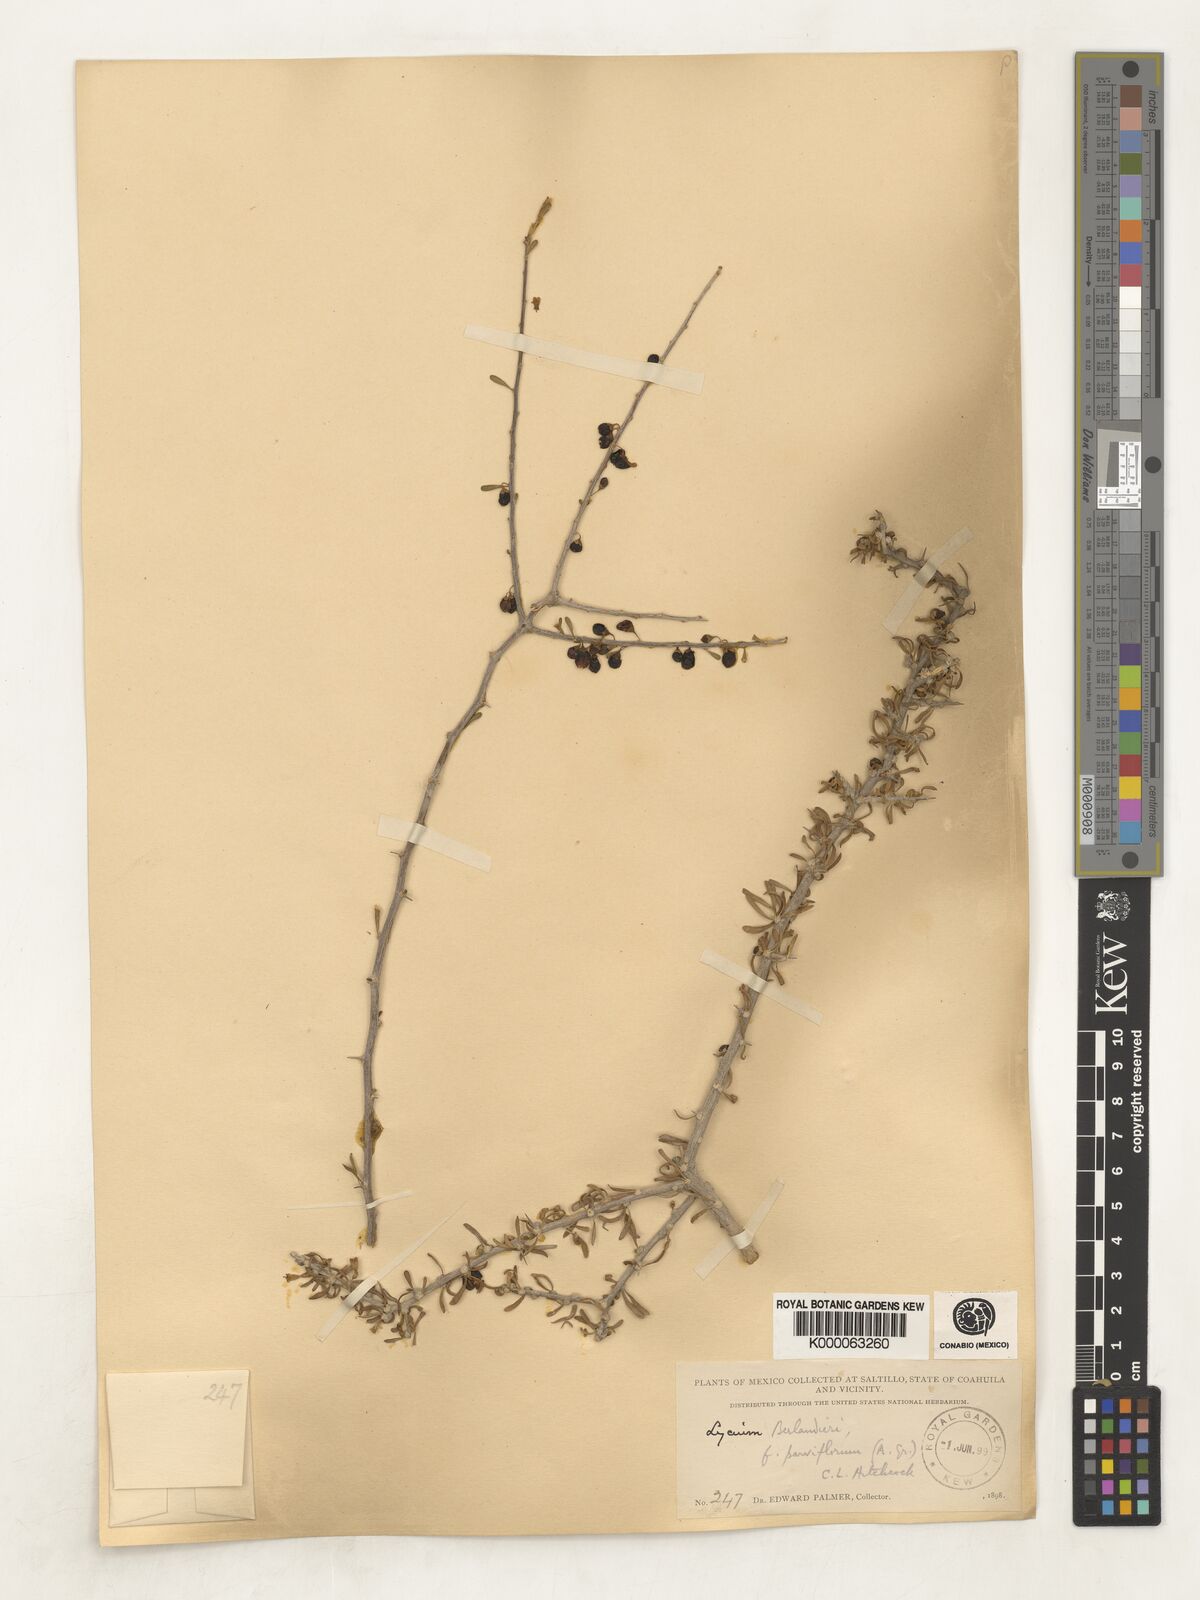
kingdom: Plantae
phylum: Tracheophyta
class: Magnoliopsida
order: Solanales
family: Solanaceae
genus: Lycium
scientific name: Lycium berlandieri
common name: Berlandier wolfberry
